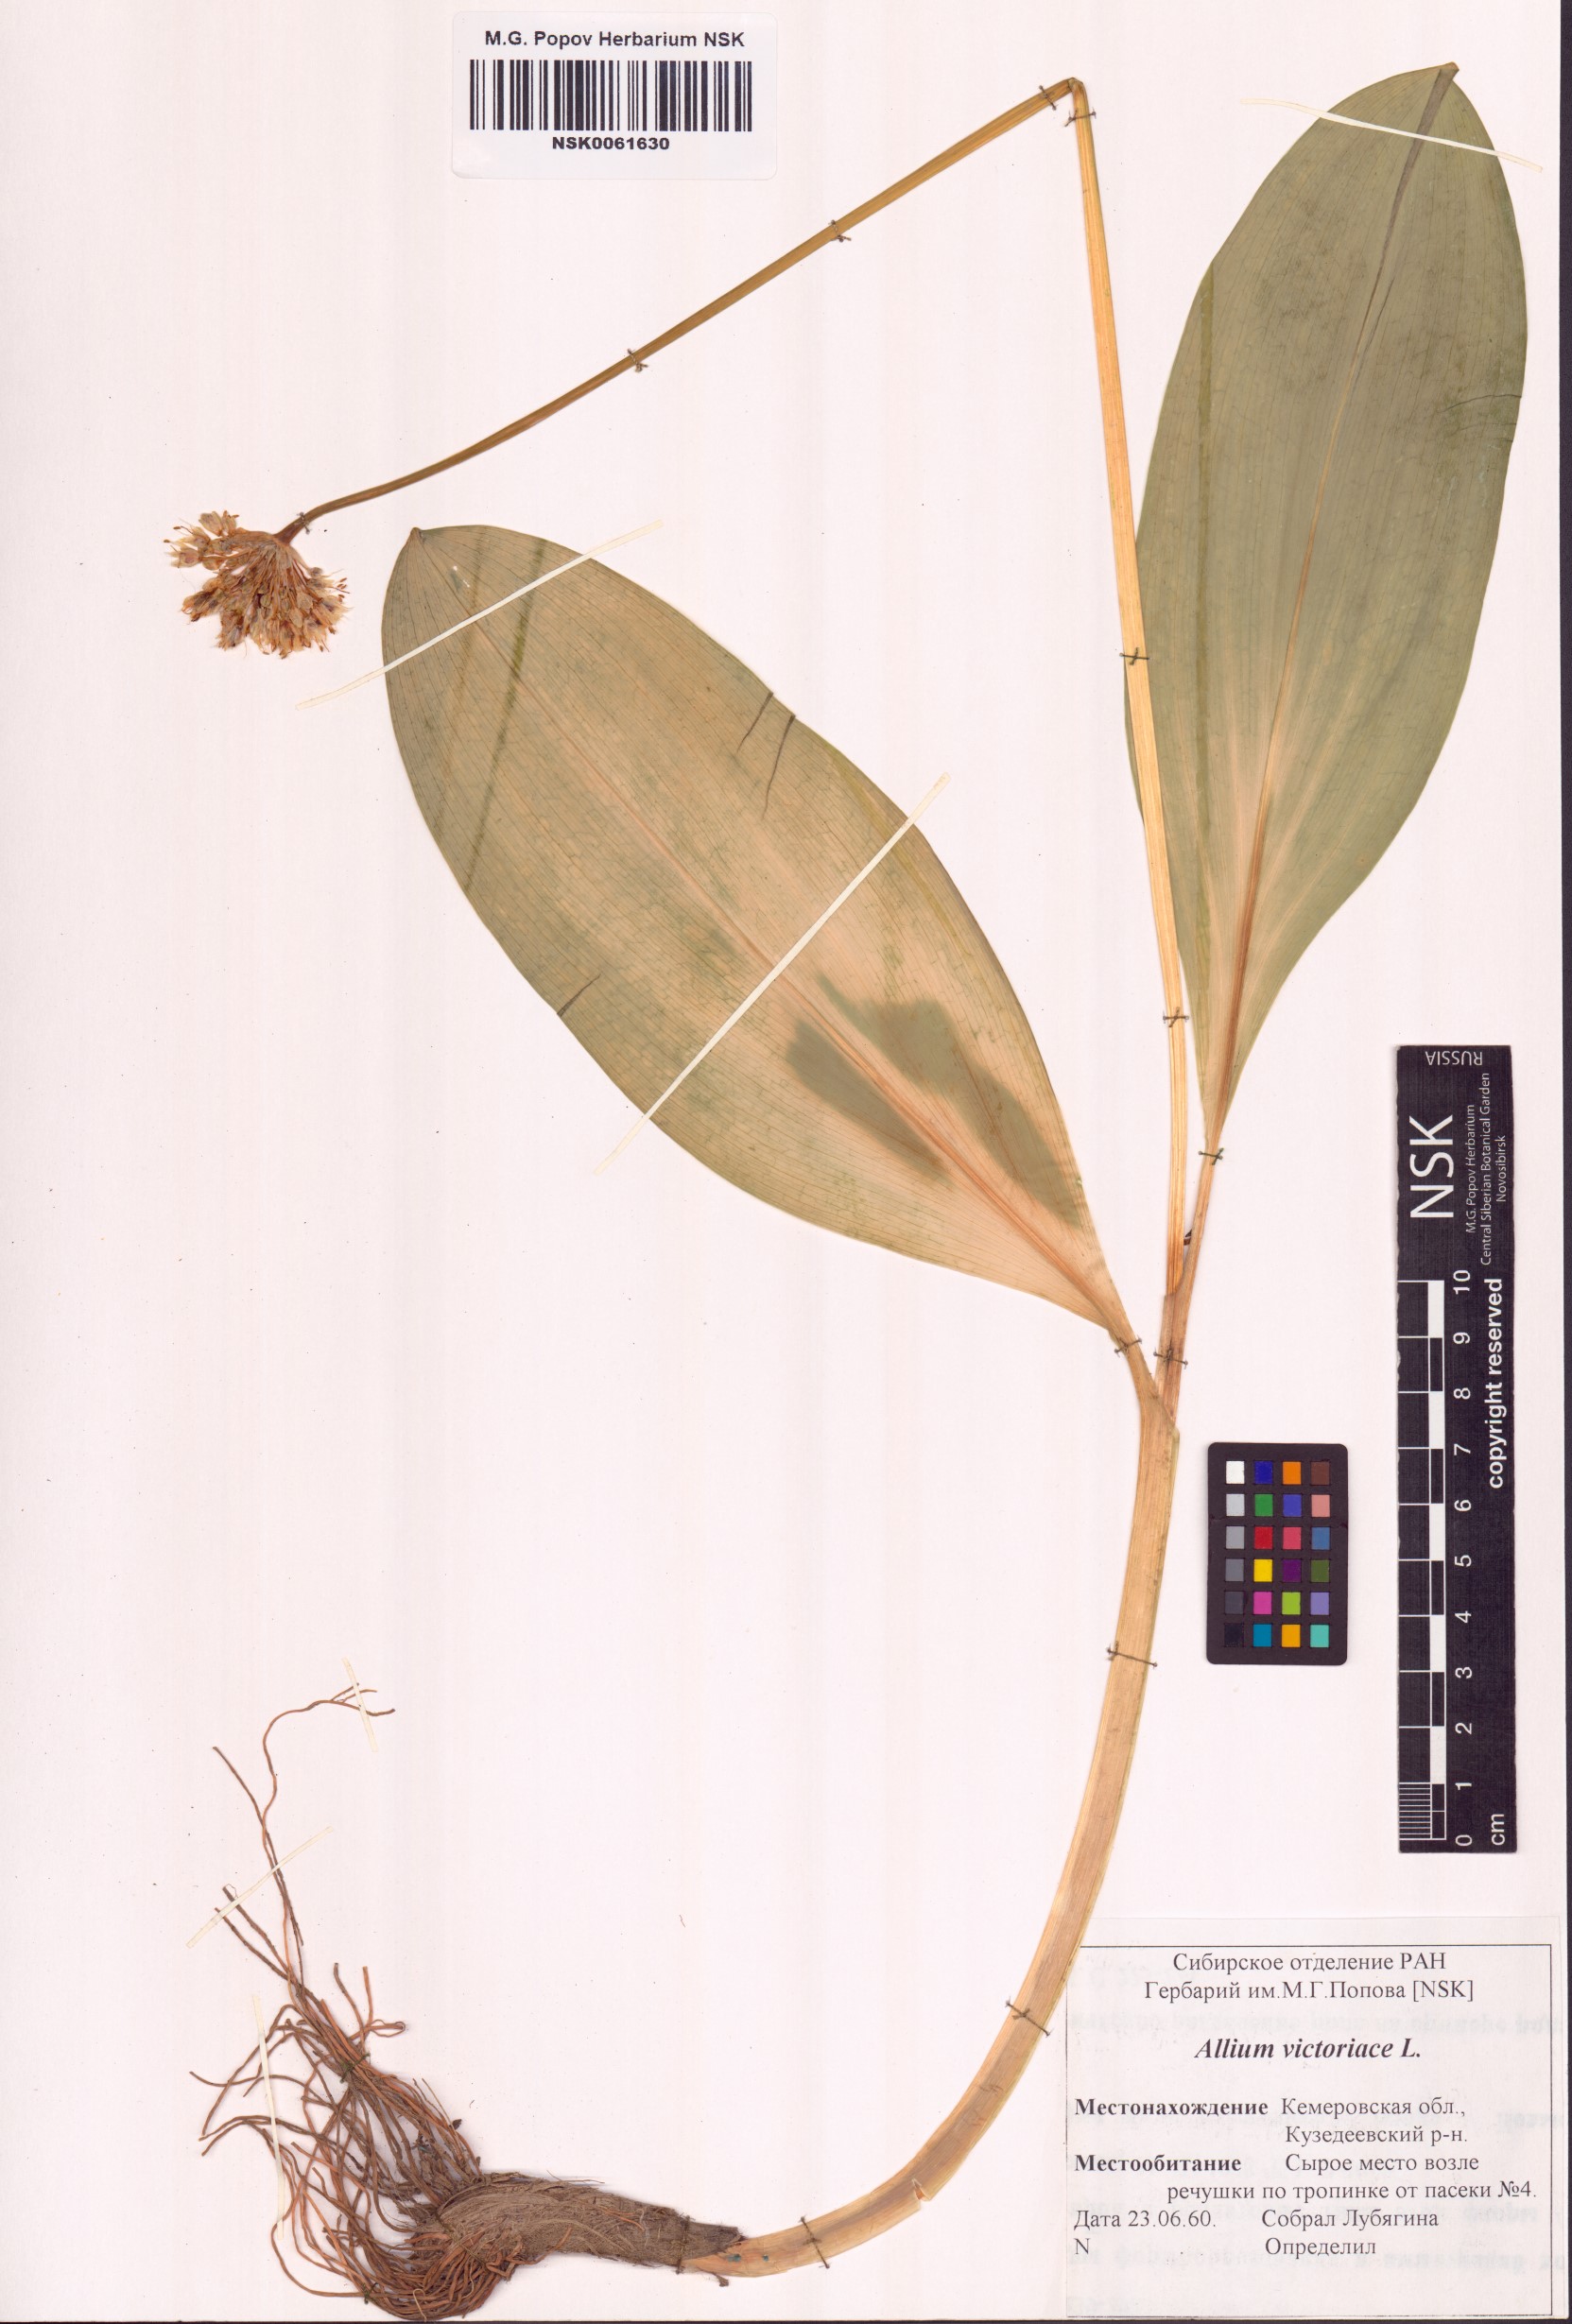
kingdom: Plantae
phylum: Tracheophyta
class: Liliopsida
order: Asparagales
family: Amaryllidaceae
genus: Allium
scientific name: Allium victorialis
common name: Alpine leek
